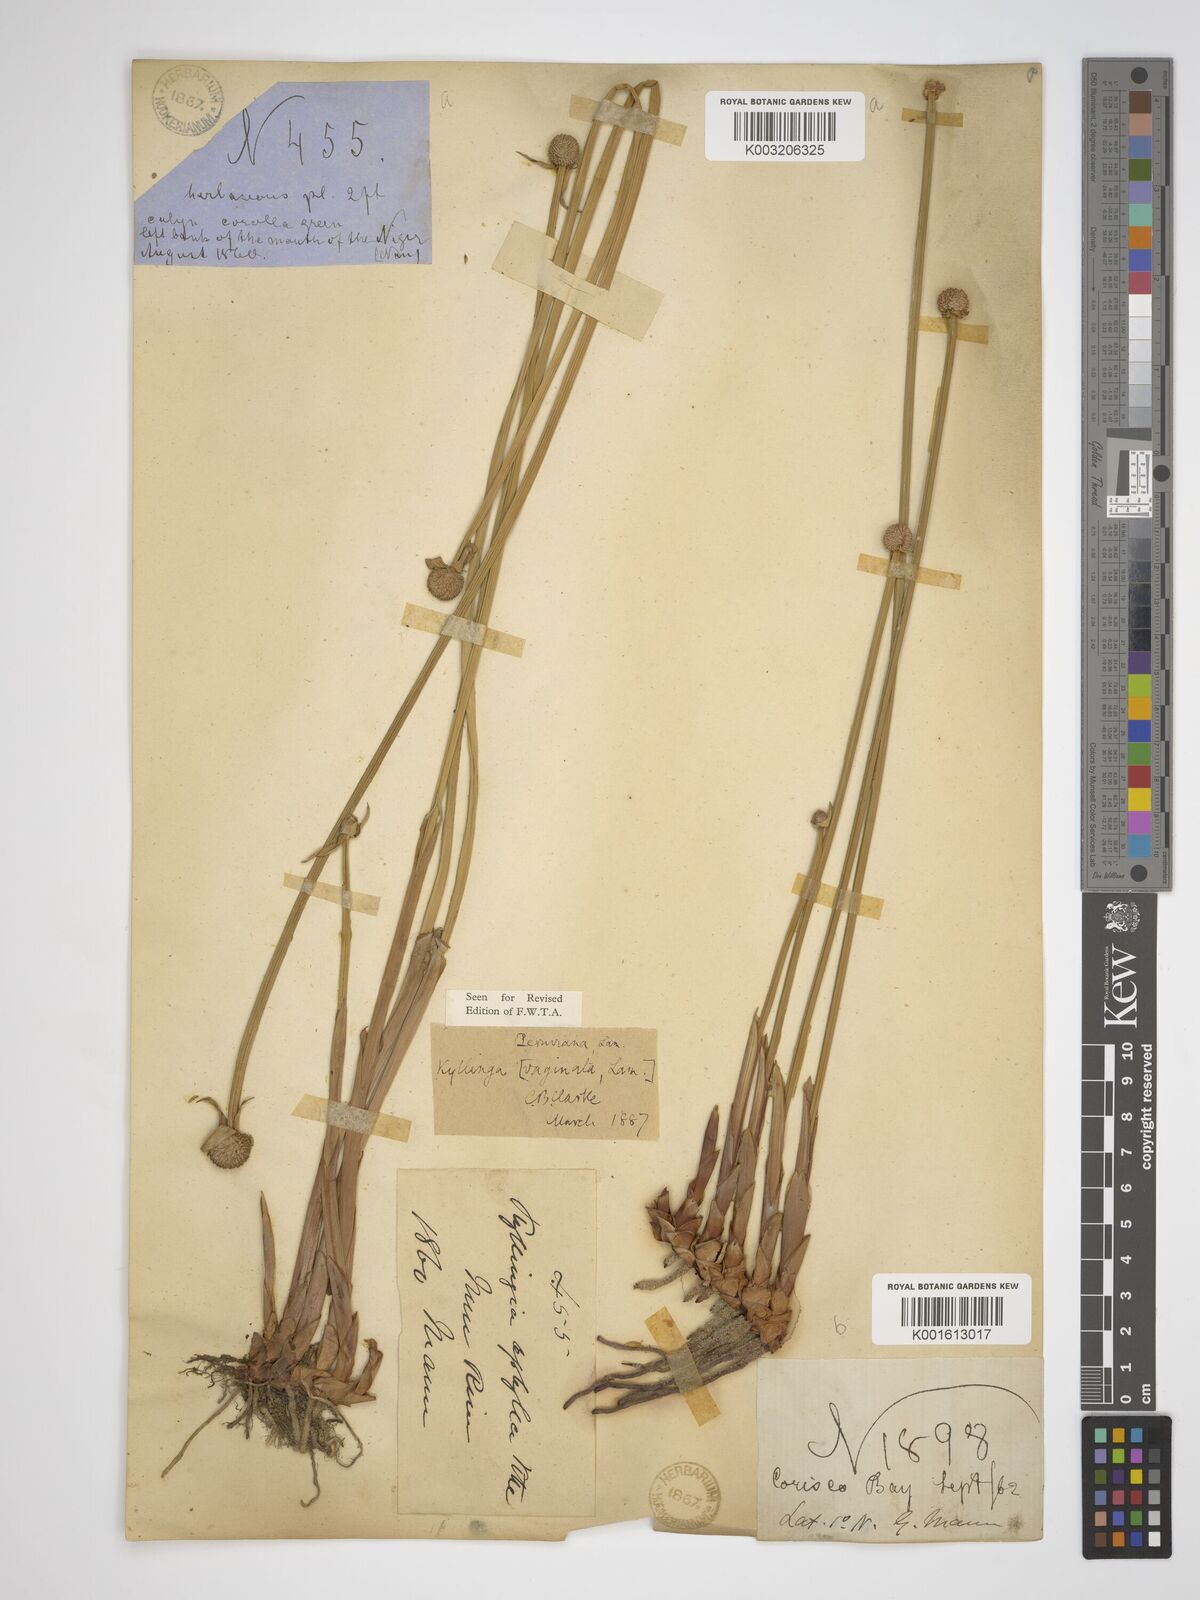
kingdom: Plantae
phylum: Tracheophyta
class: Liliopsida
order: Poales
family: Cyperaceae
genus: Cyperus
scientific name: Cyperus obtusatus
